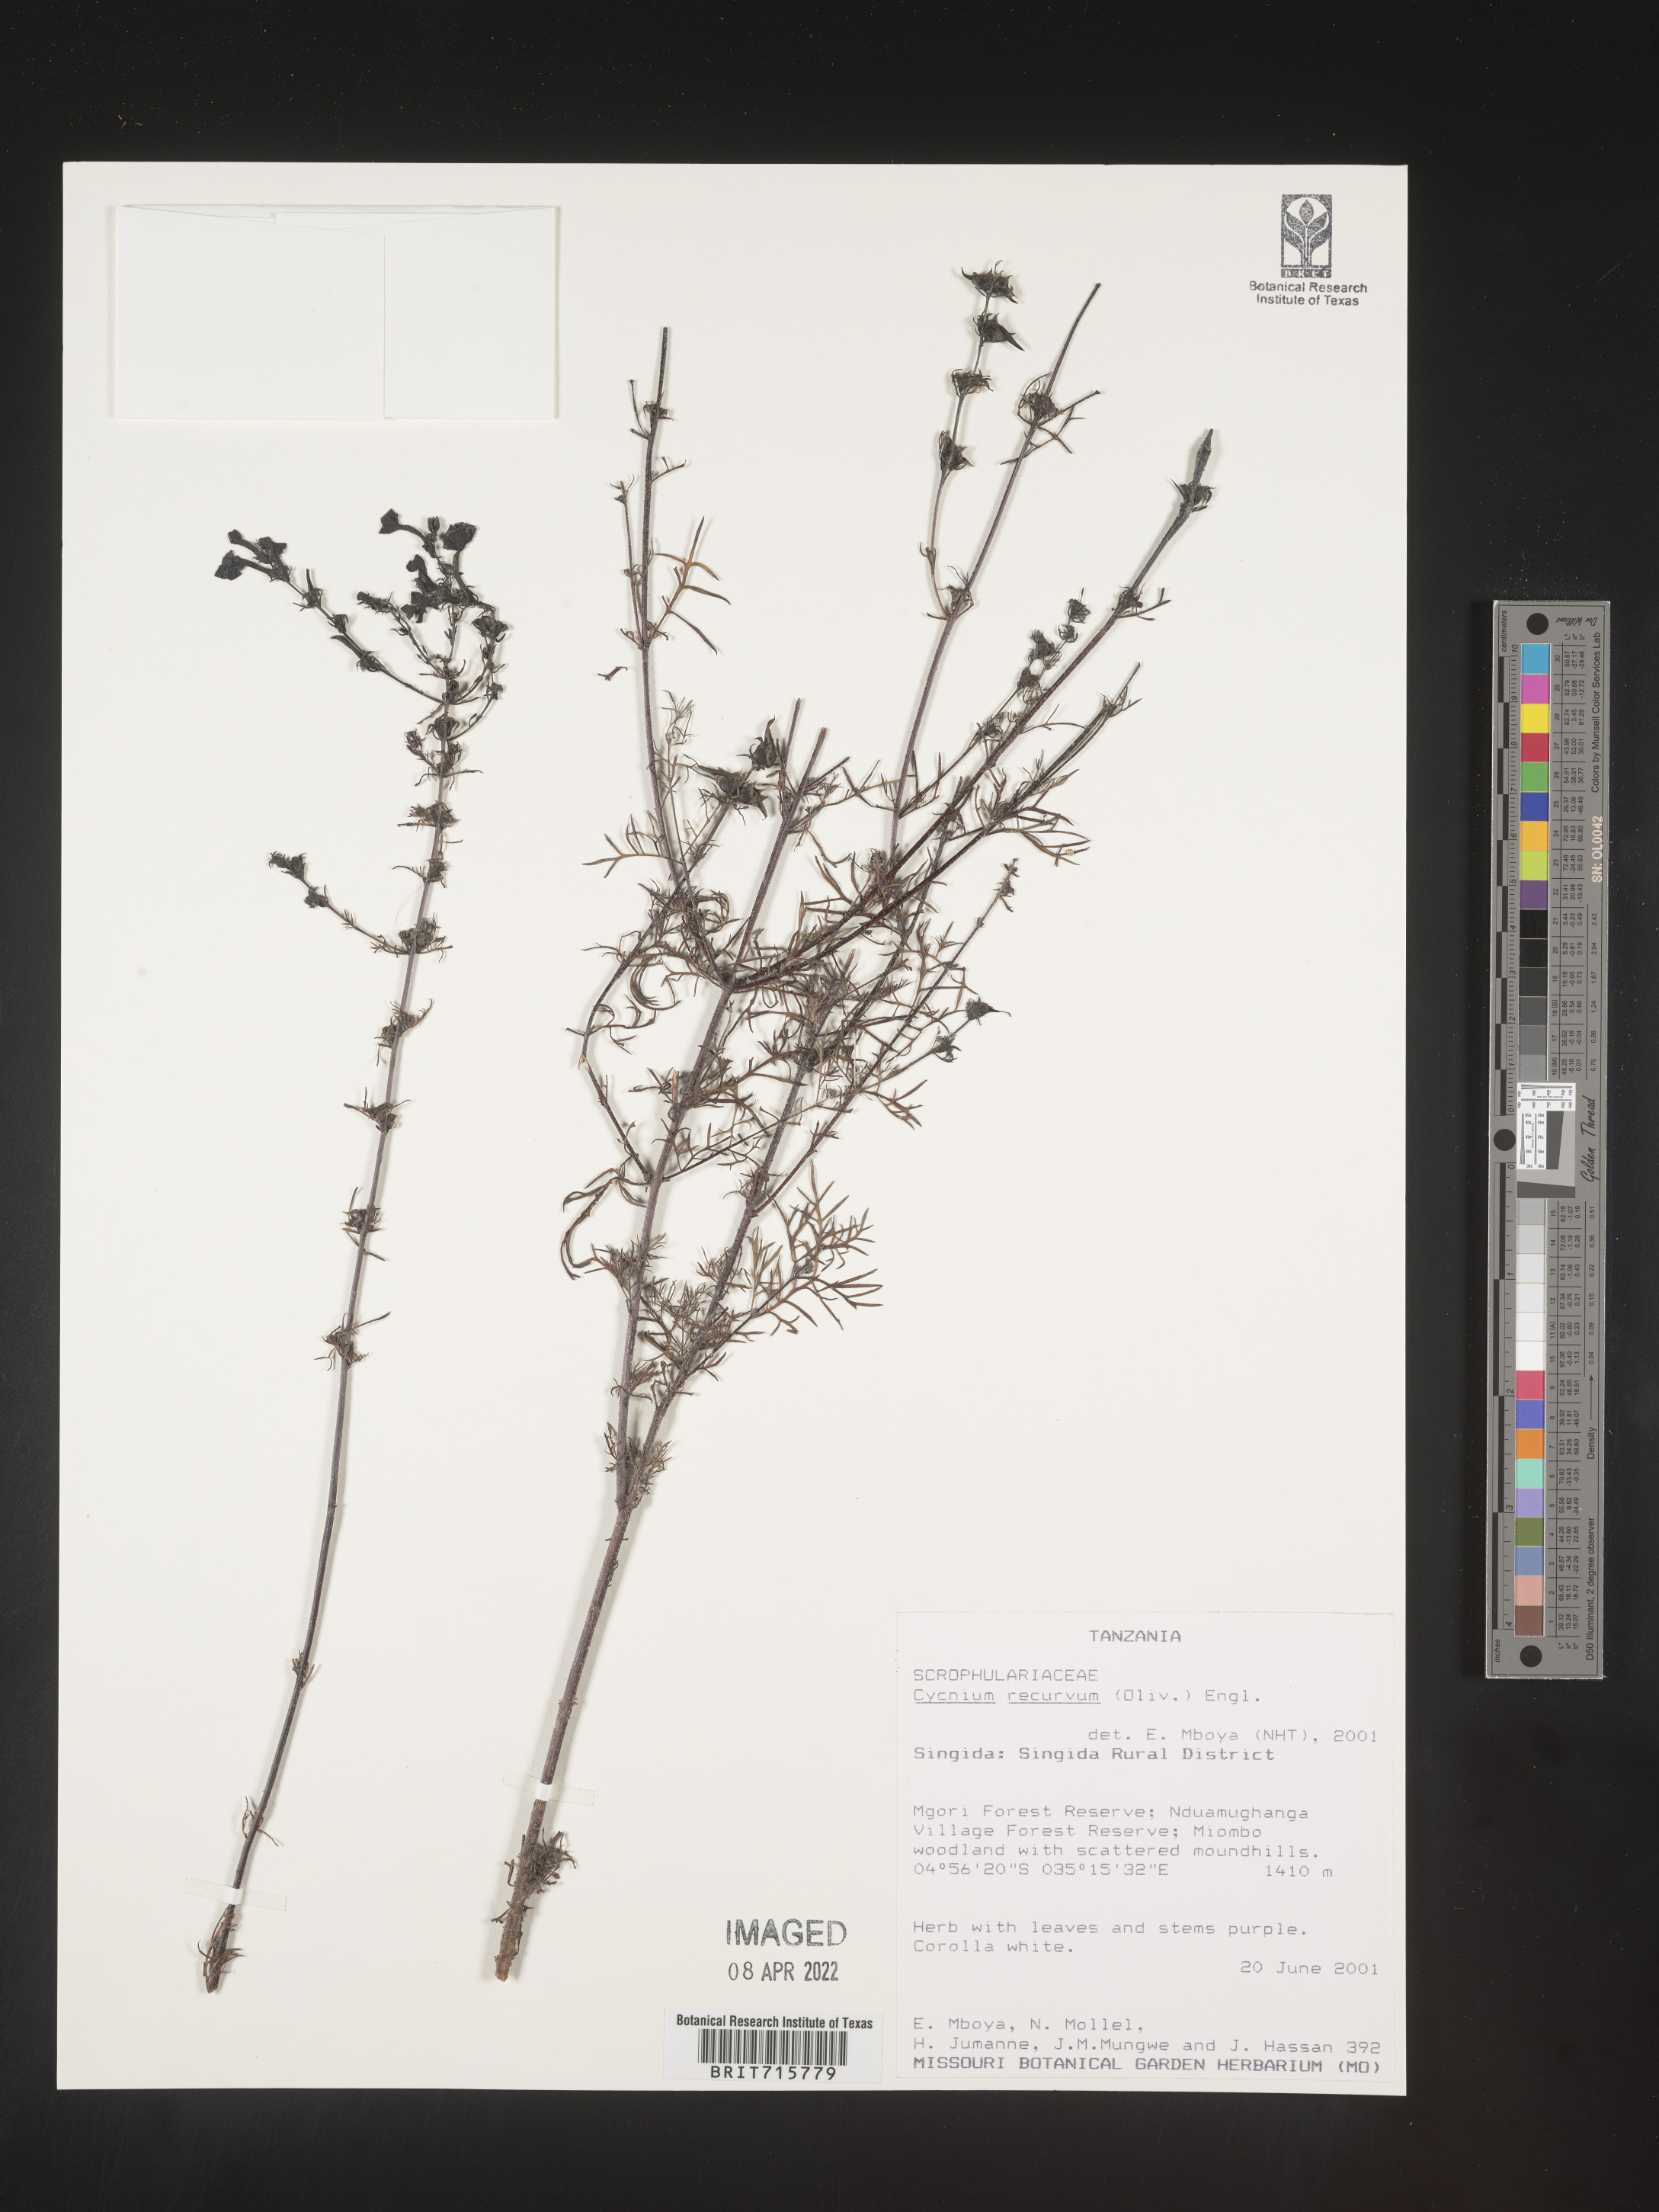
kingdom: Plantae
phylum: Tracheophyta
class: Magnoliopsida
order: Lamiales
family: Orobanchaceae
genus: Cycnium
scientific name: Cycnium
